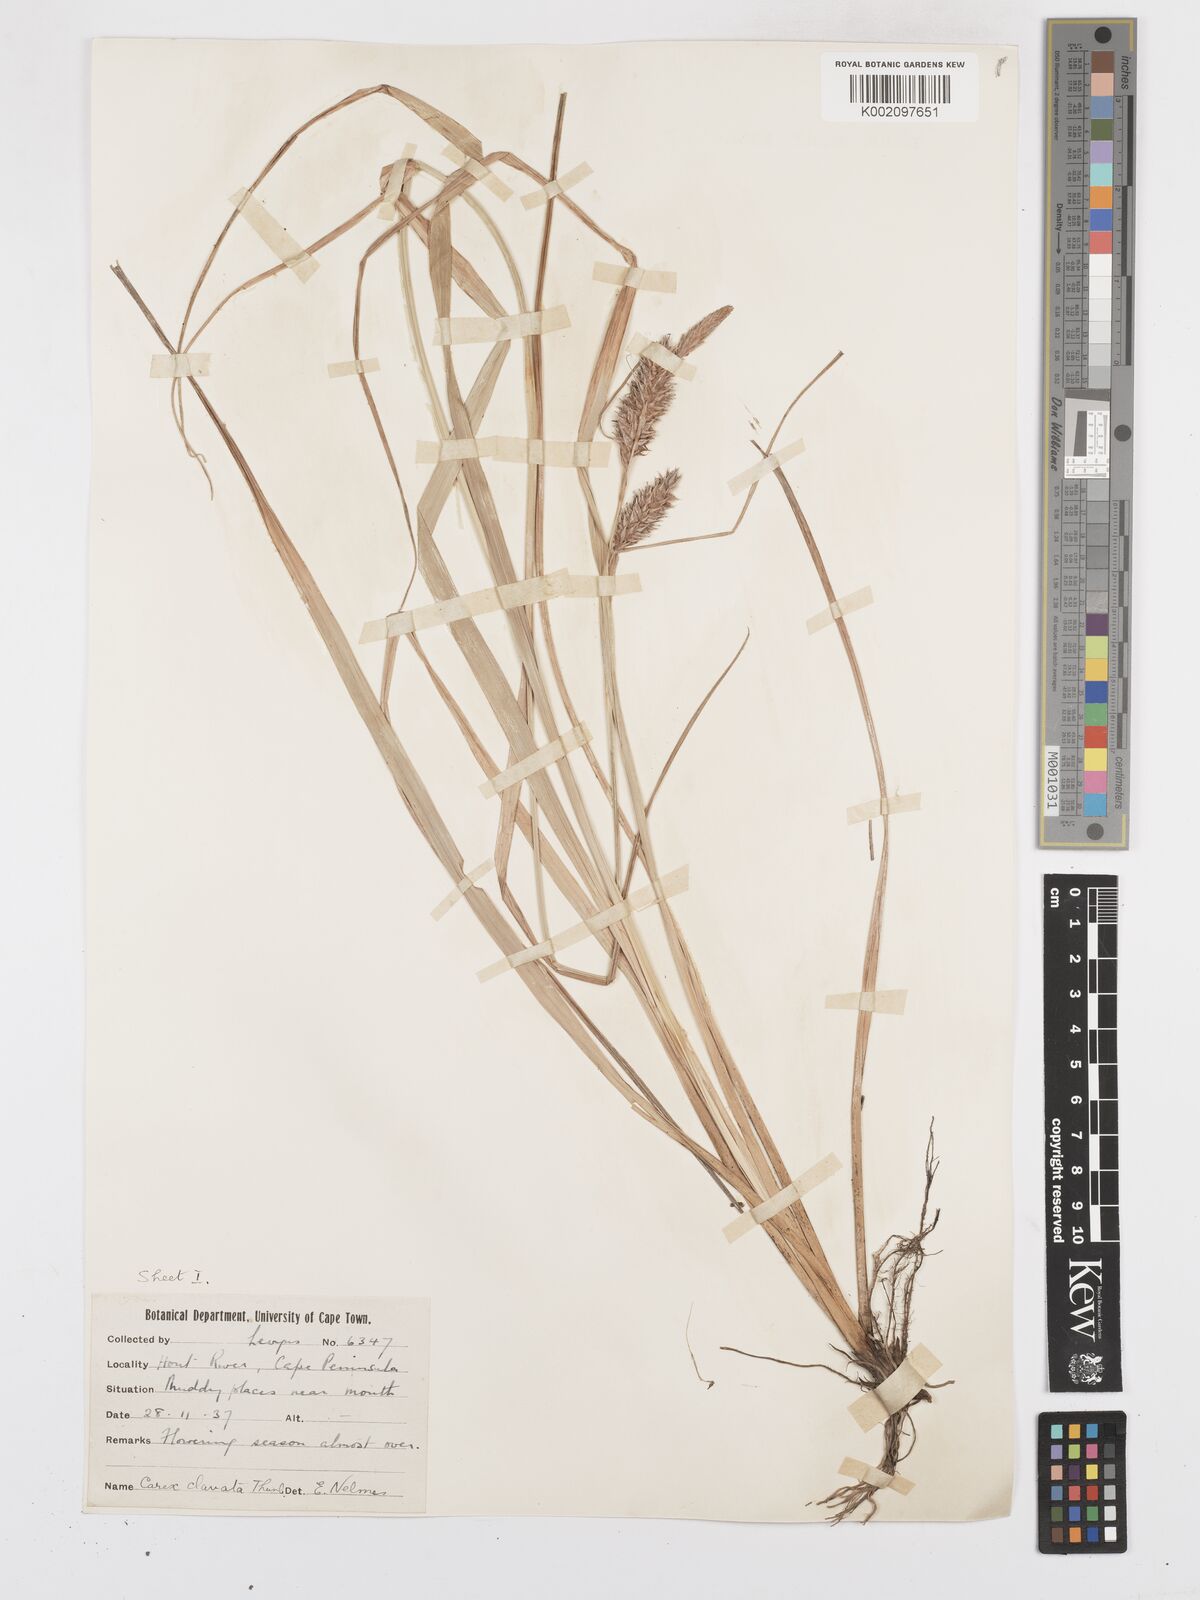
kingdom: Plantae
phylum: Tracheophyta
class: Liliopsida
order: Poales
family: Cyperaceae
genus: Carex
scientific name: Carex clavata
